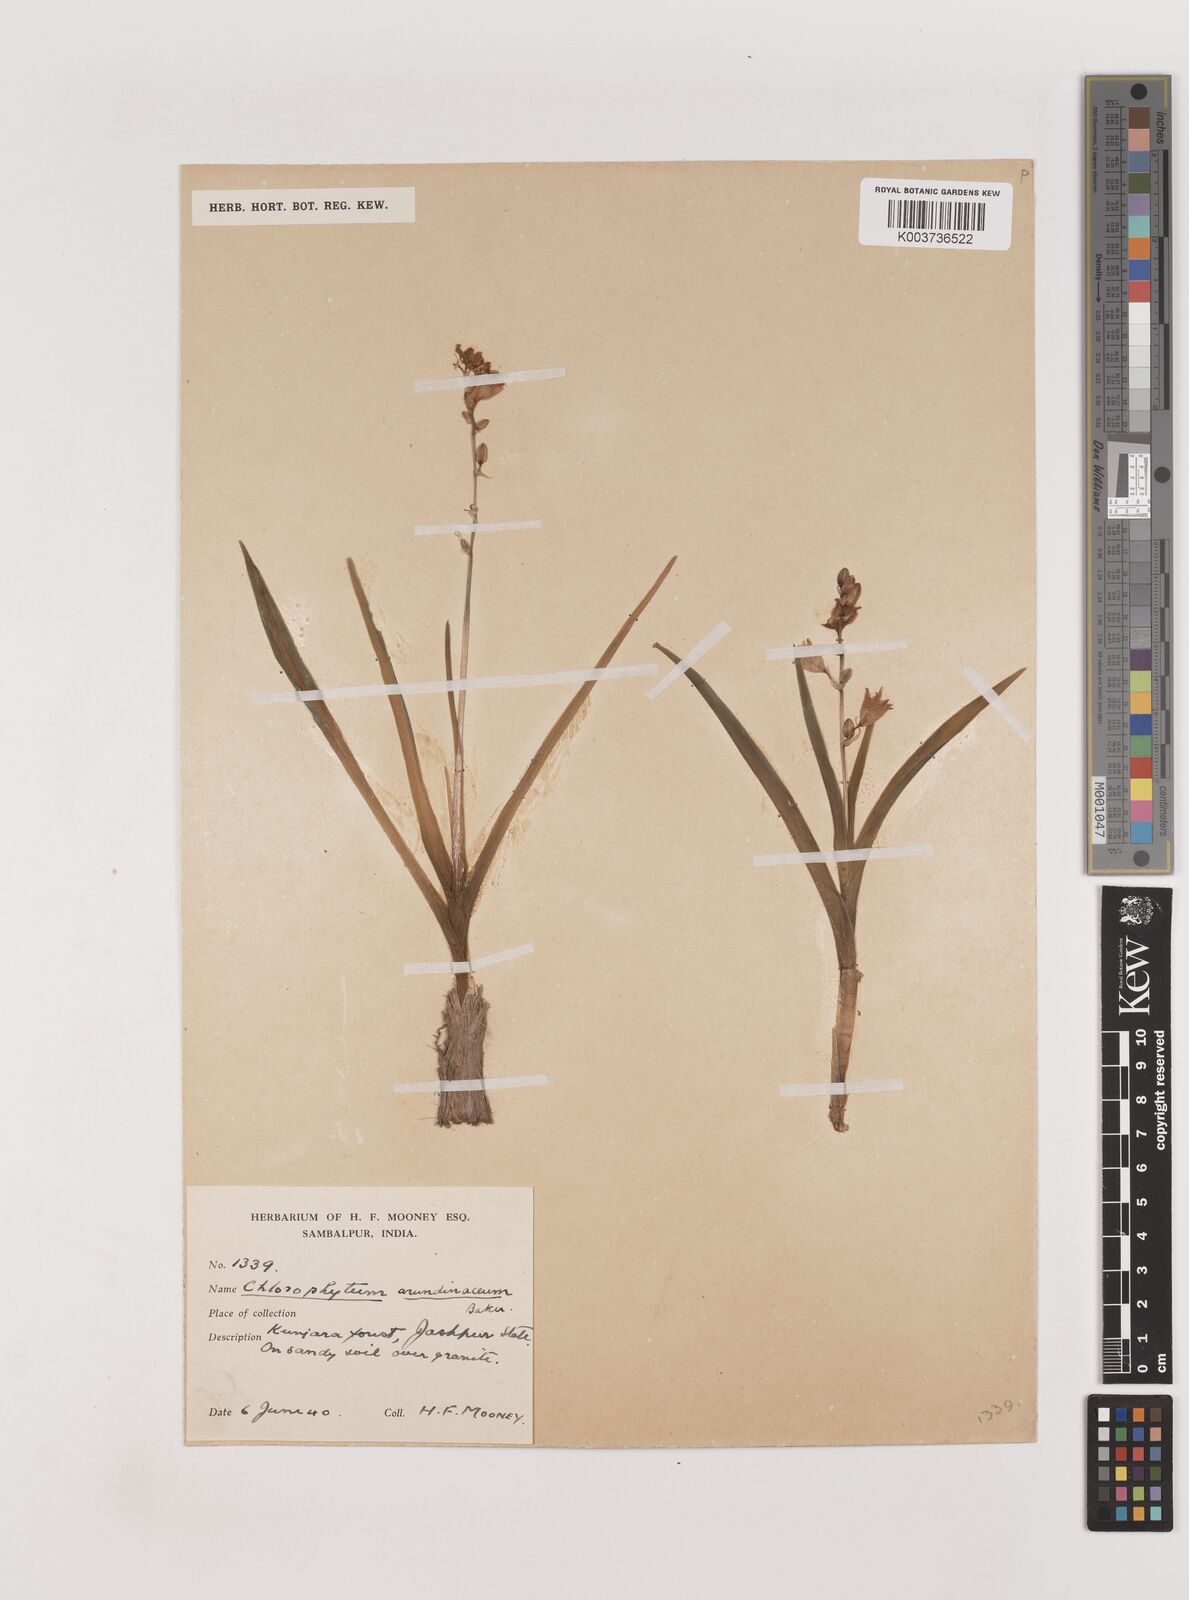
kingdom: Plantae
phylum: Tracheophyta
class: Liliopsida
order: Asparagales
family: Asparagaceae
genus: Chlorophytum
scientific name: Chlorophytum arundinaceum
